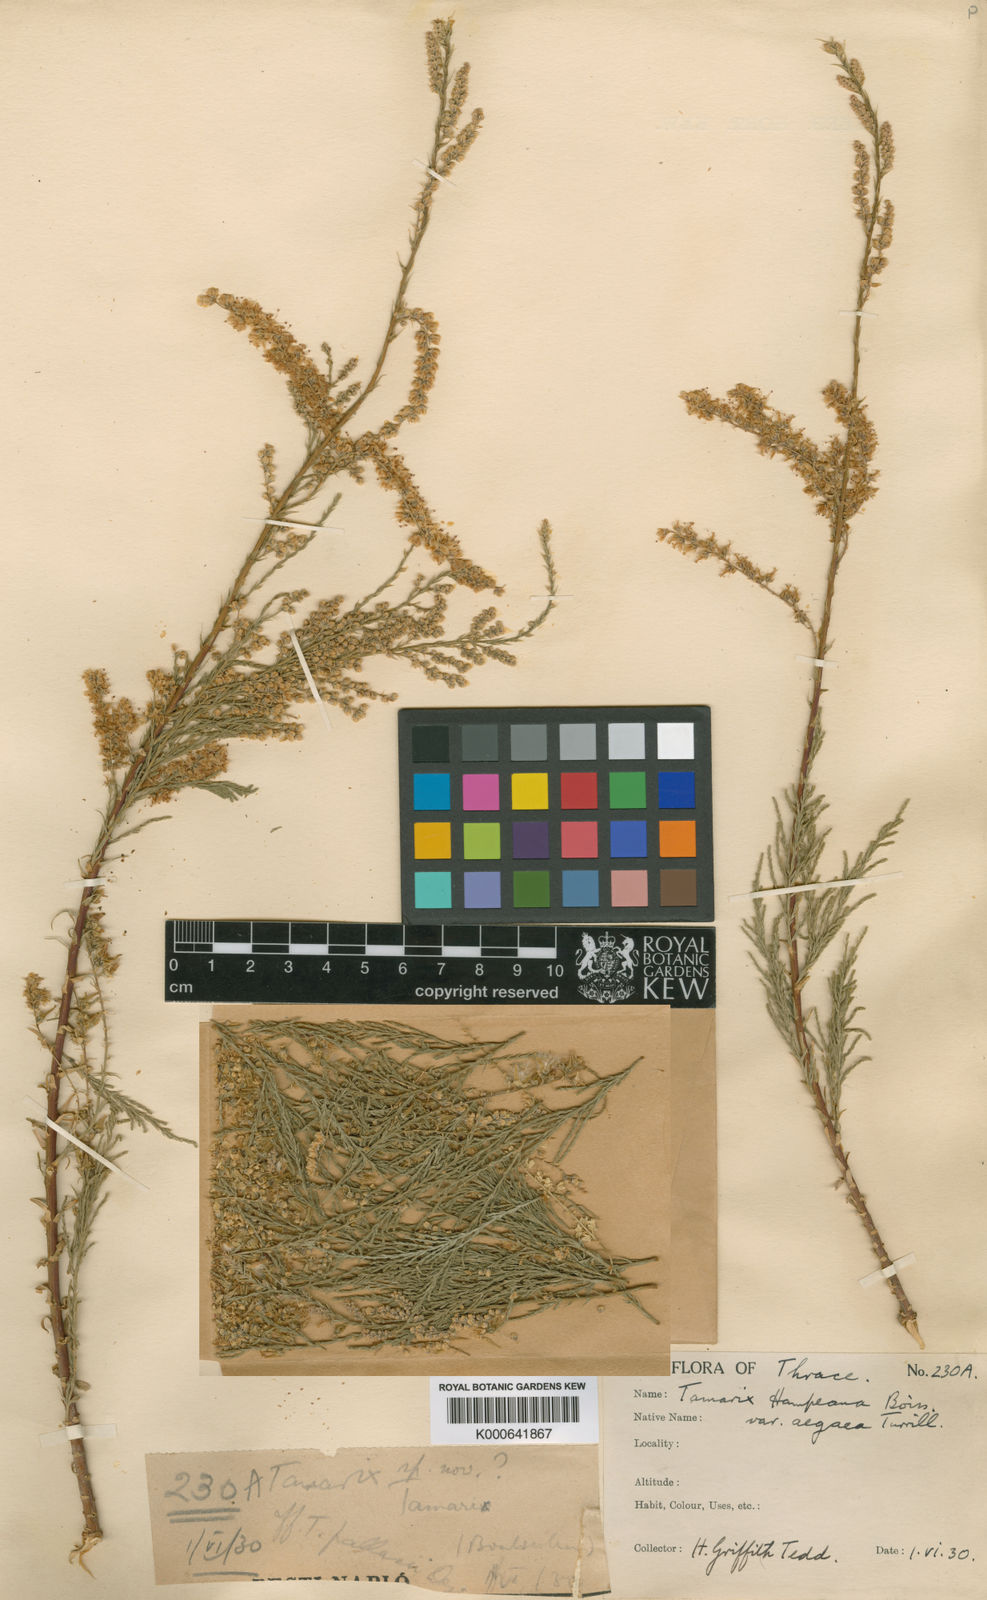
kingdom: Plantae
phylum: Tracheophyta
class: Magnoliopsida
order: Caryophyllales
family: Tamaricaceae
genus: Tamarix
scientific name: Tamarix hampeana
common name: Hampe’s tamarisk
